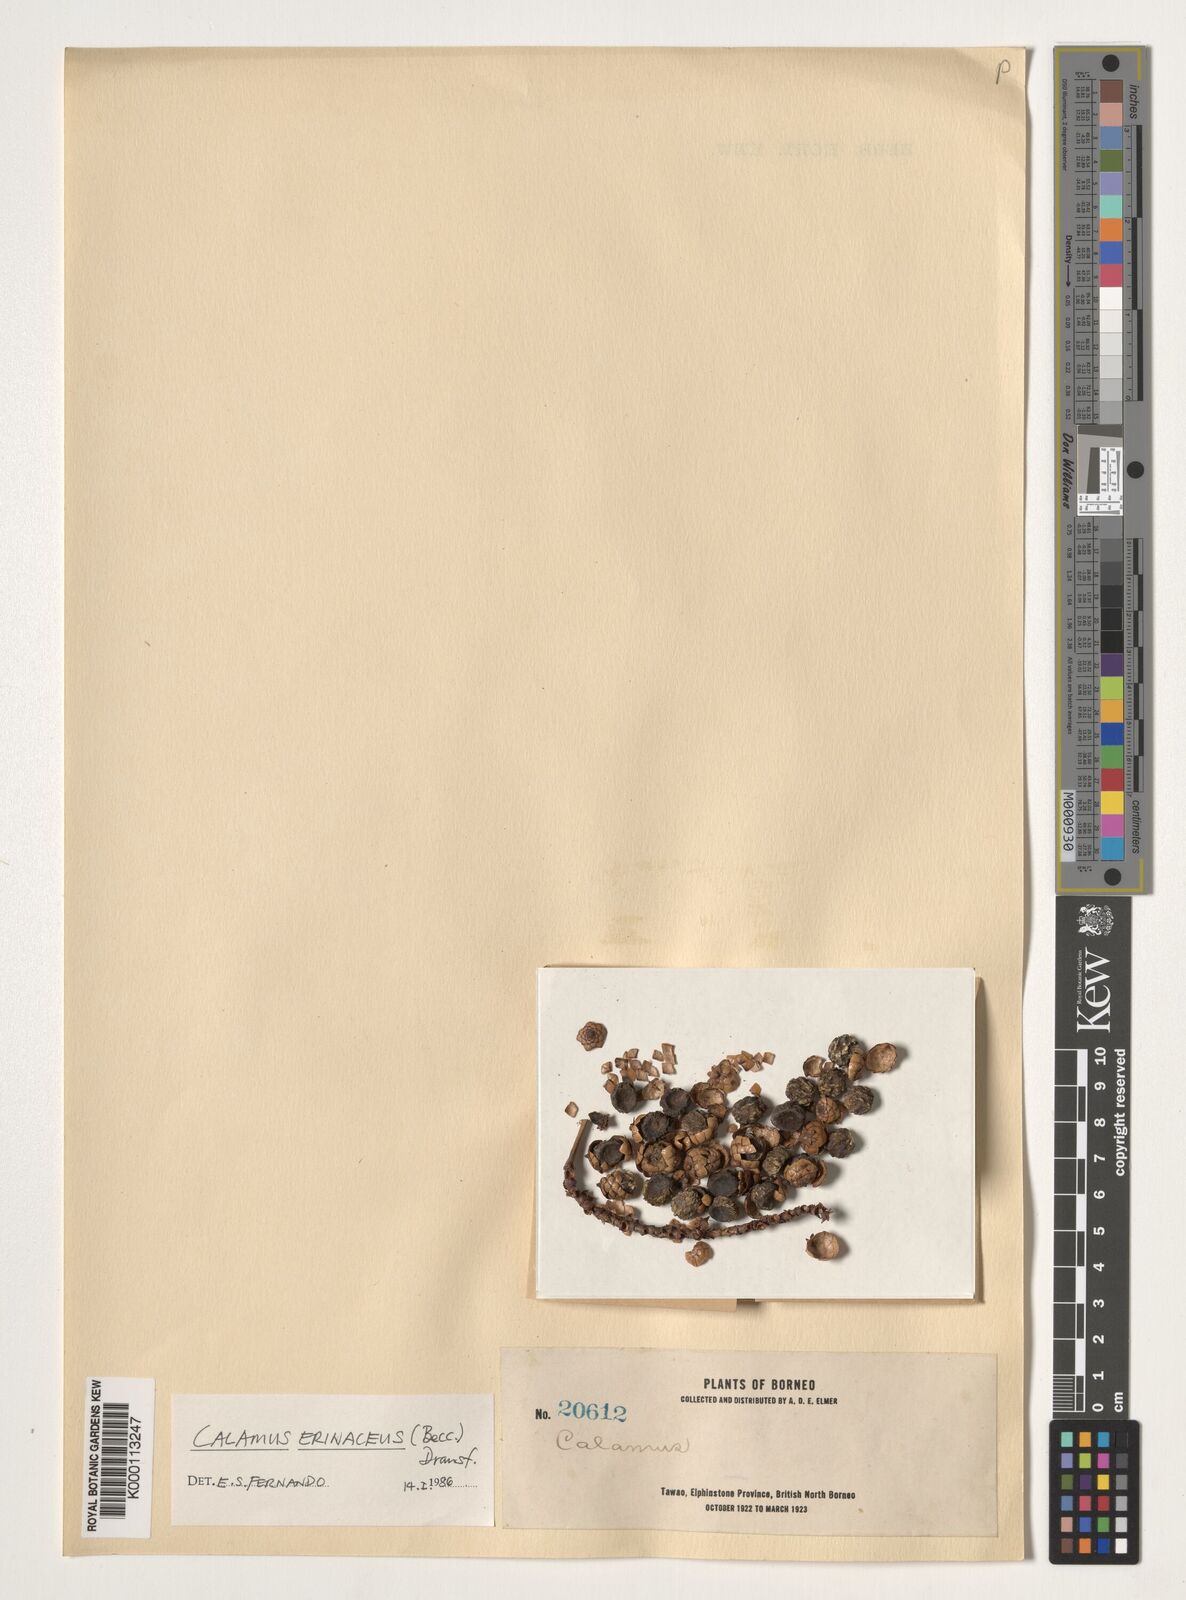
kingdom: Plantae
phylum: Tracheophyta
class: Liliopsida
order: Arecales
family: Arecaceae
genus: Calamus
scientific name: Calamus
